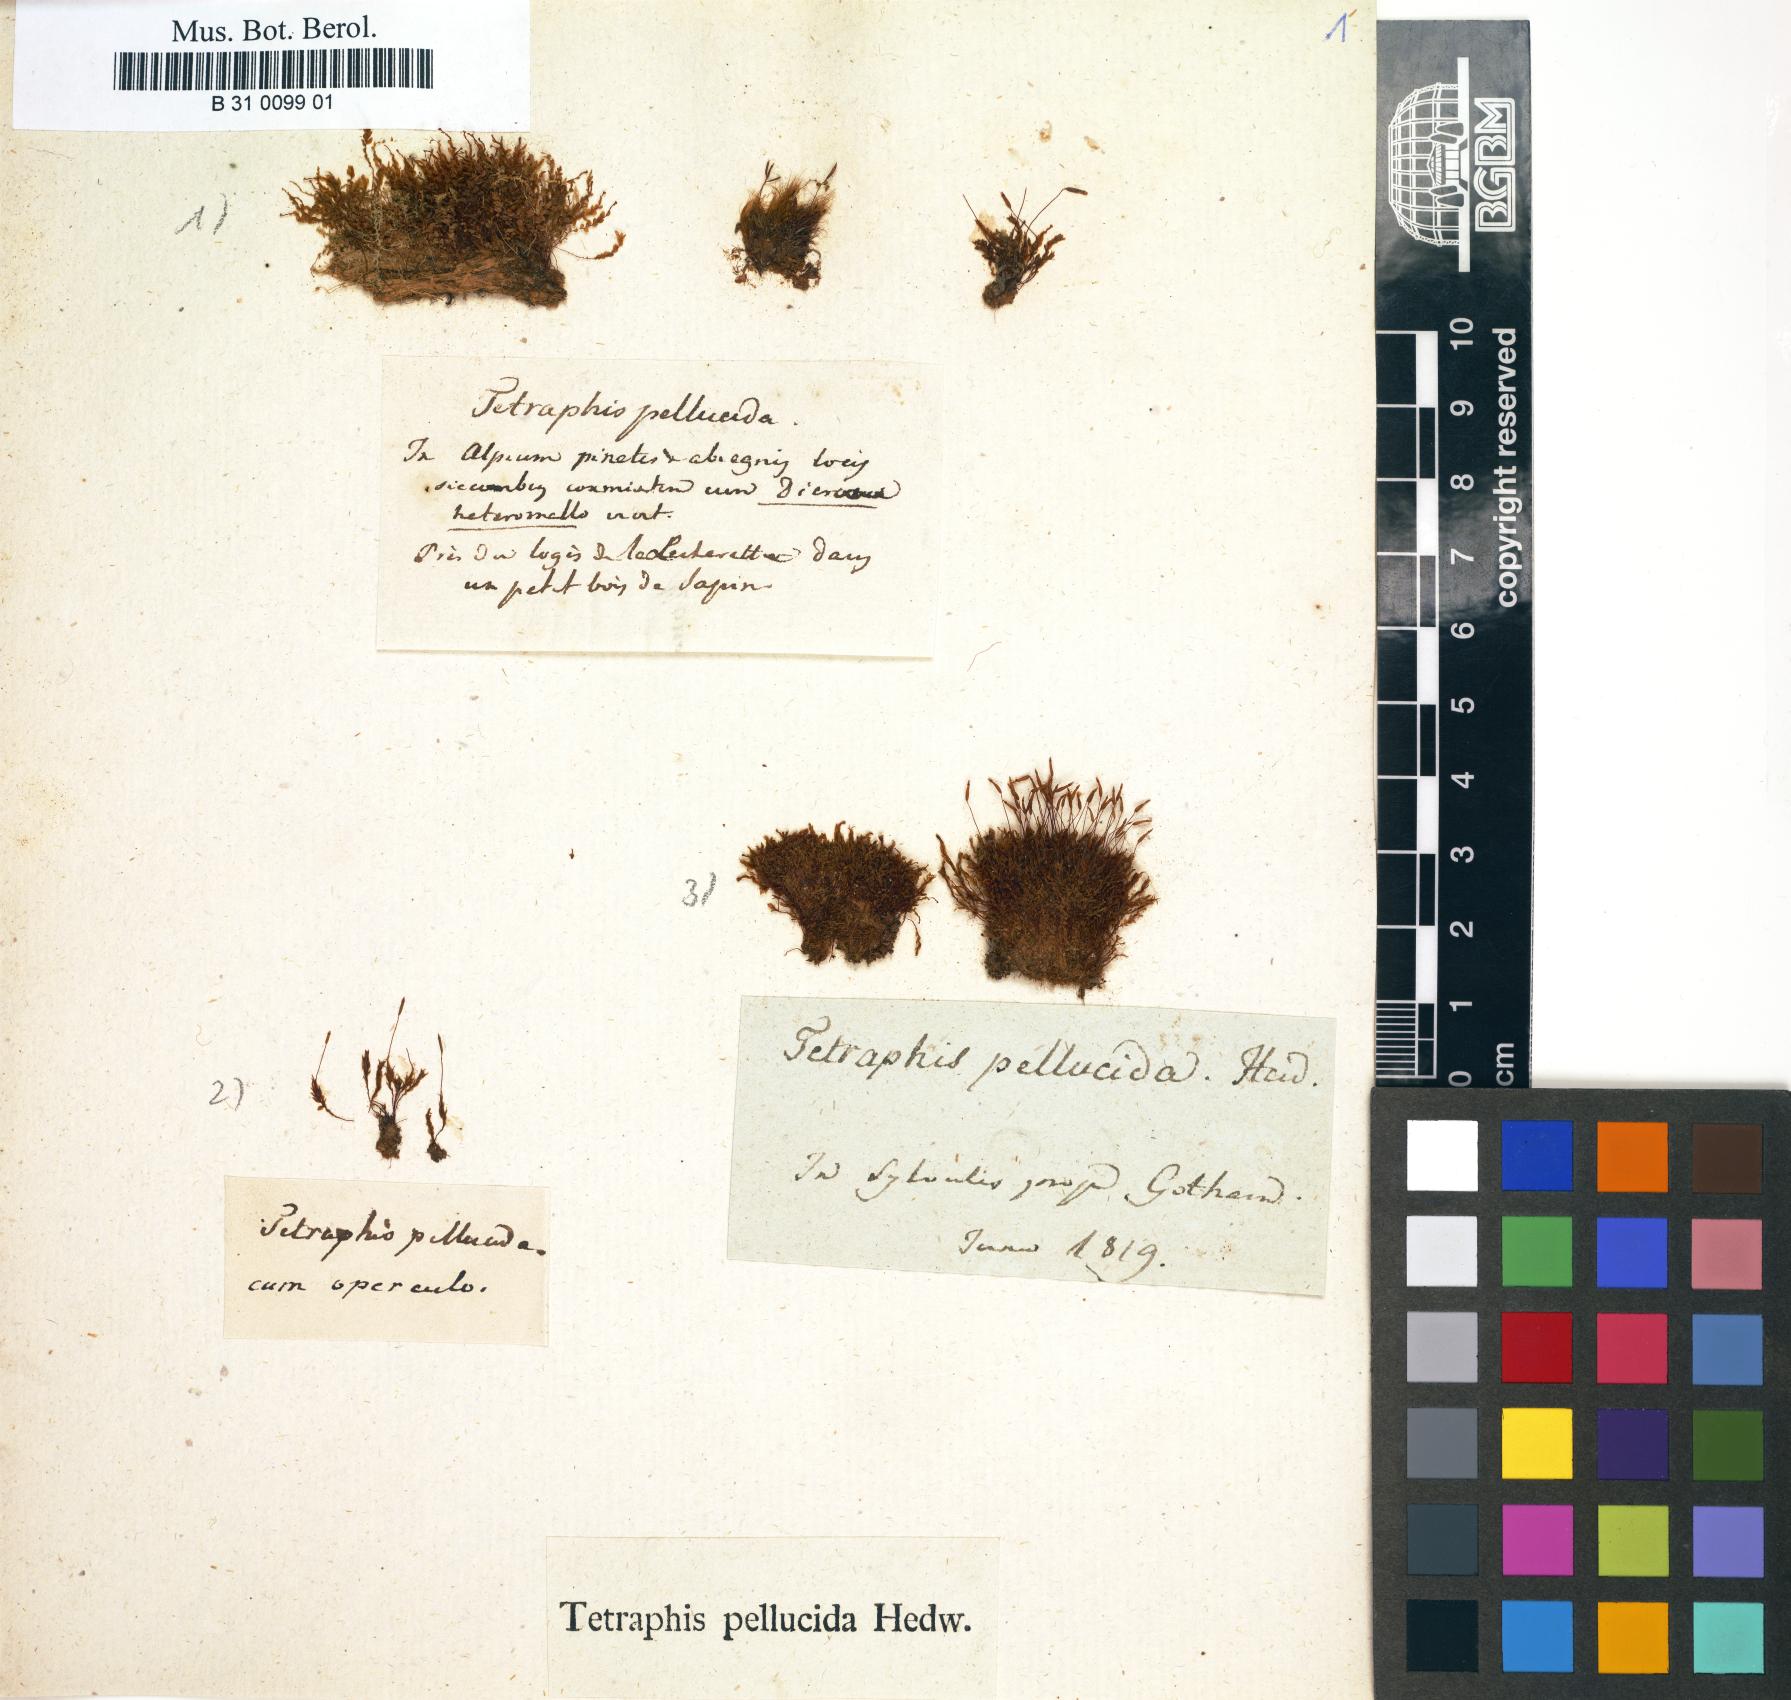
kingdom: Plantae
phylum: Bryophyta
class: Polytrichopsida
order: Tetraphidales
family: Tetraphidaceae
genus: Tetraphis
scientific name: Tetraphis pellucida
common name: Common four-toothed moss
